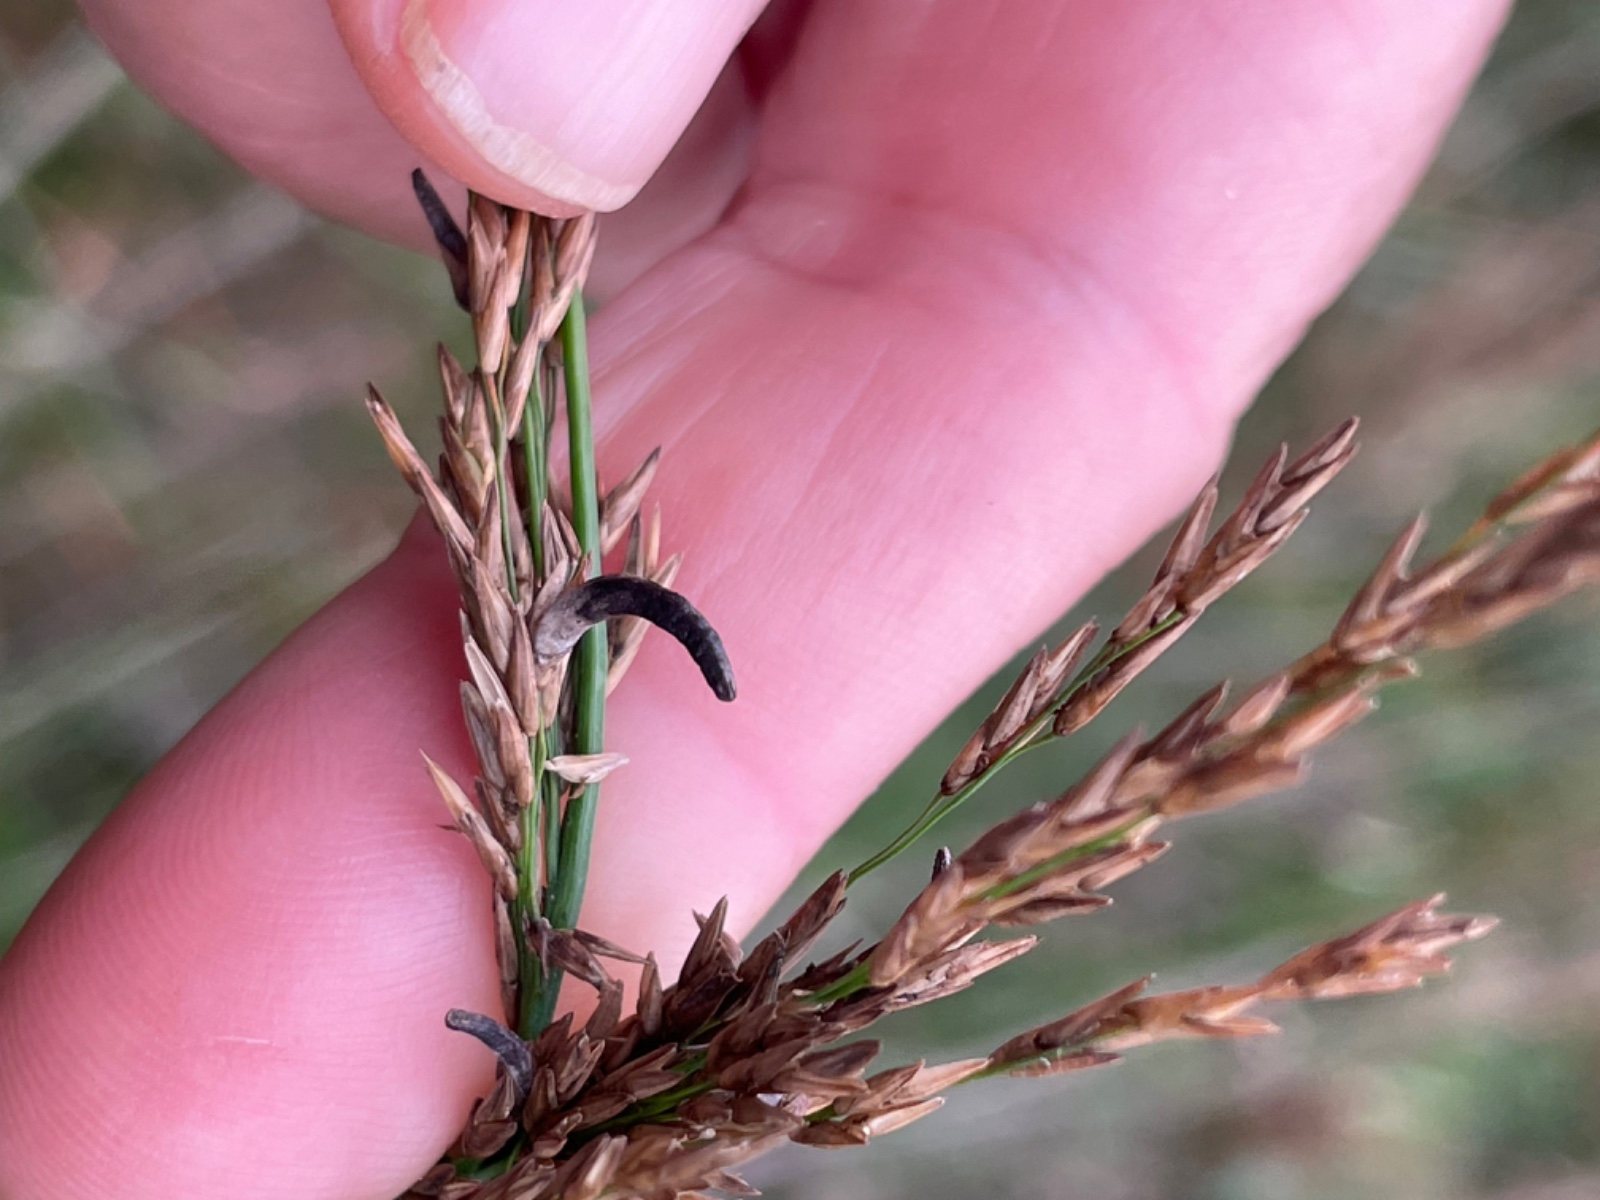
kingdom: Fungi
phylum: Ascomycota
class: Sordariomycetes
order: Hypocreales
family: Clavicipitaceae
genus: Claviceps
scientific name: Claviceps purpurea
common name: almindelig meldrøjer
